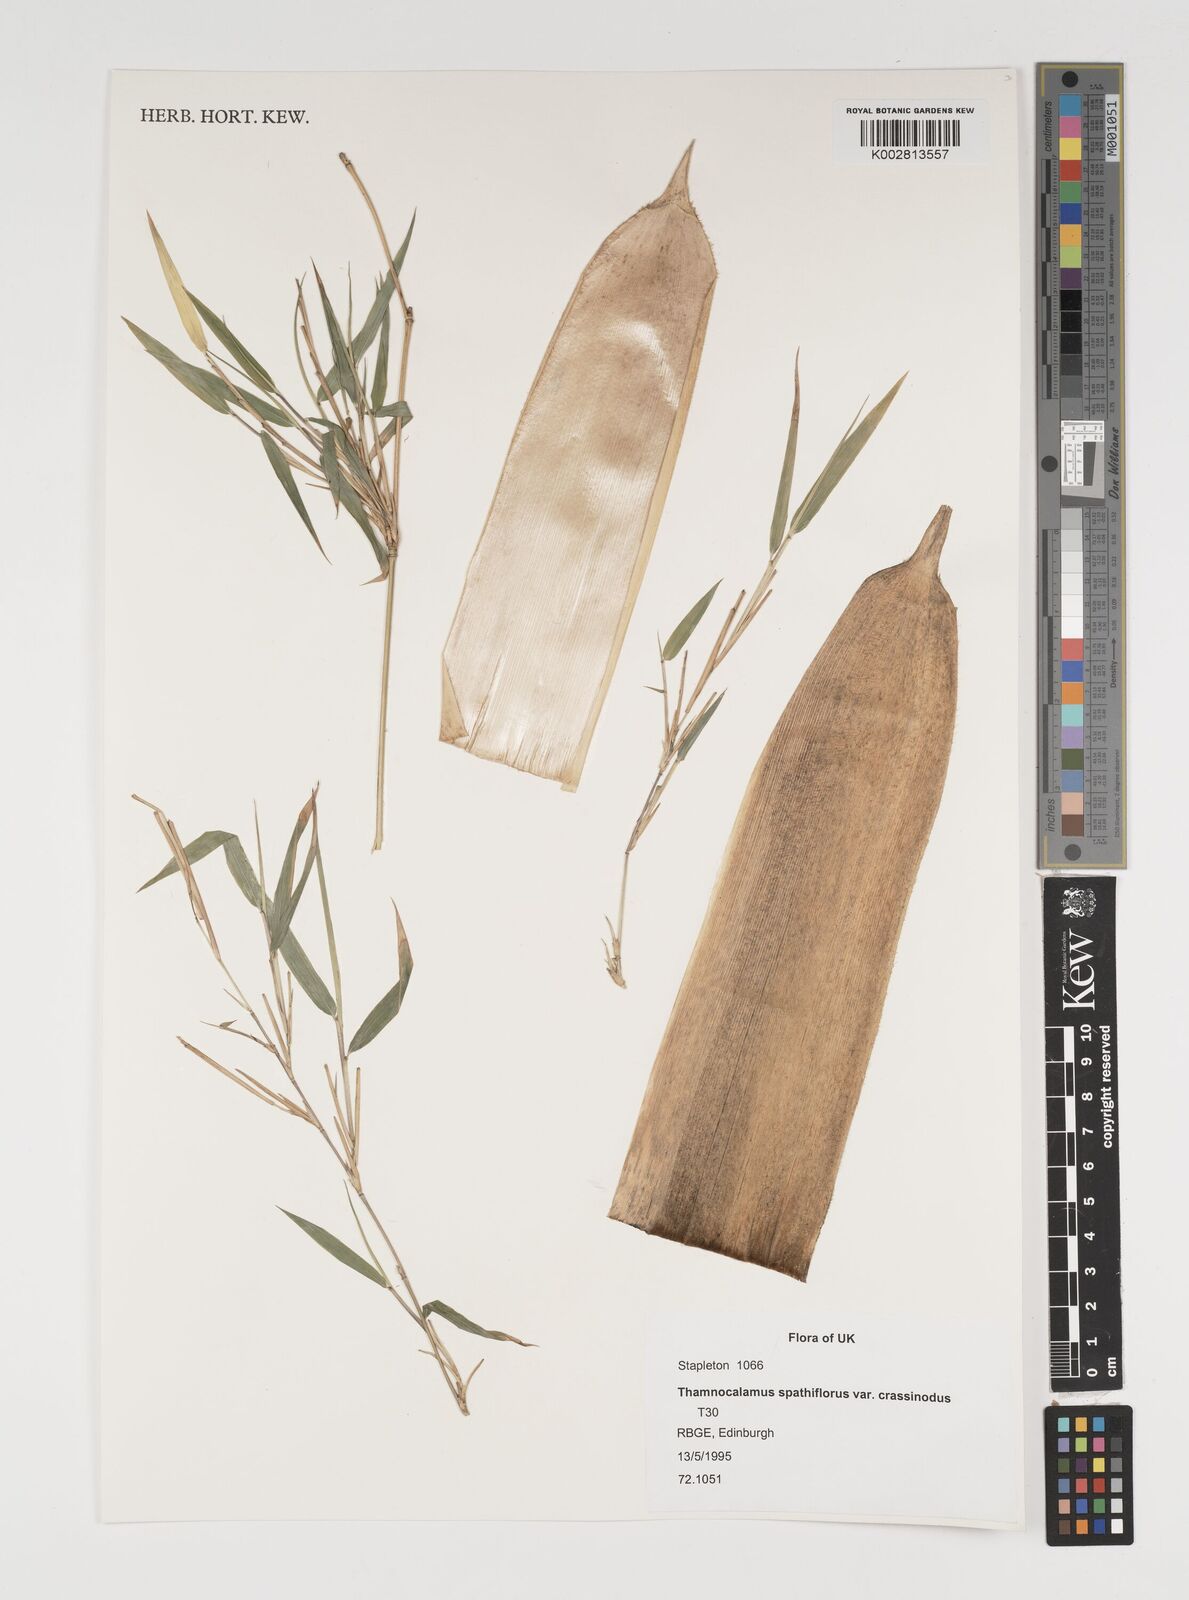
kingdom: Plantae
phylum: Tracheophyta
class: Liliopsida
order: Poales
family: Poaceae
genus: Fargesia
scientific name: Fargesia murielae
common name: Umbrella bamboo
